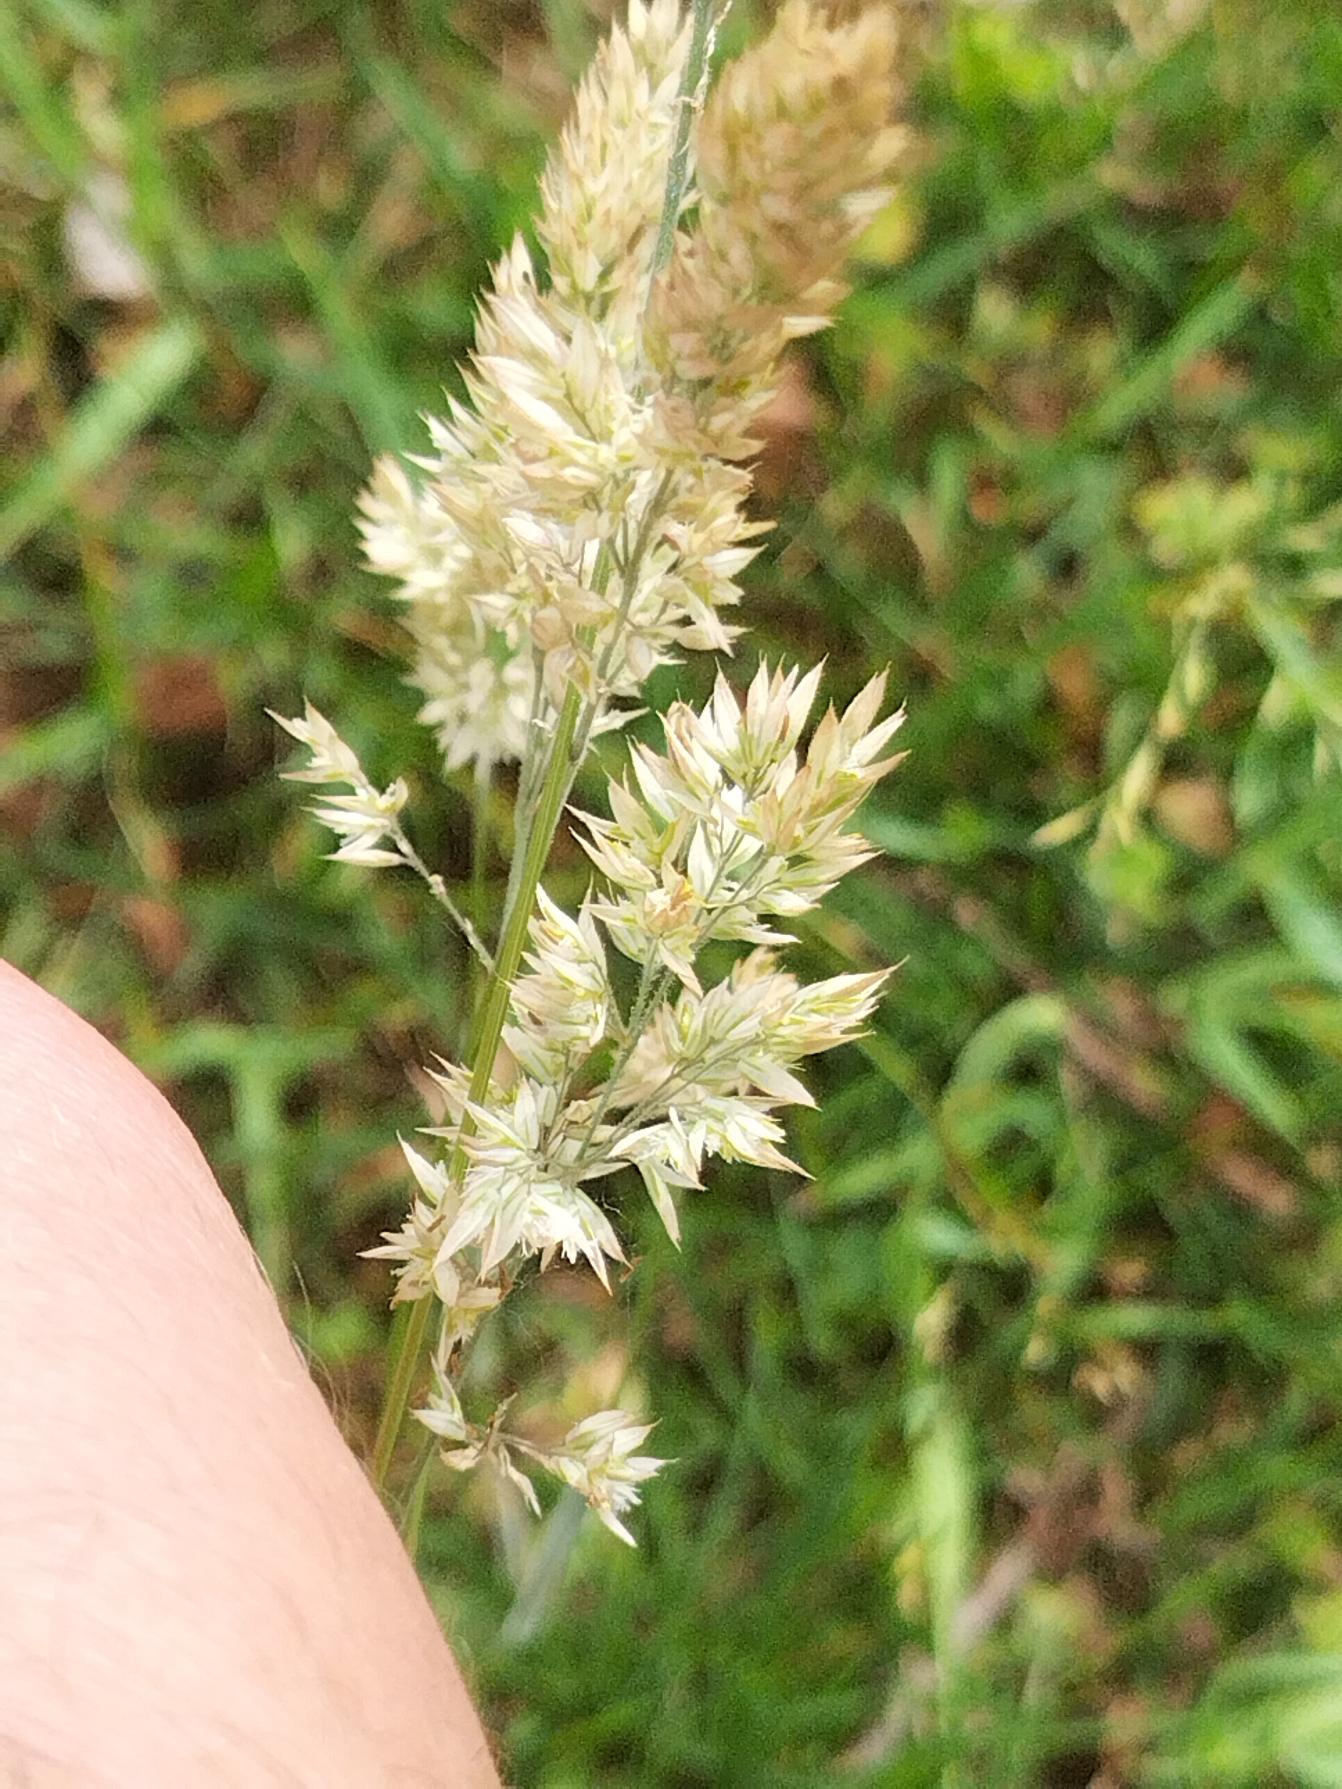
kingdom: Plantae
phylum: Tracheophyta
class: Liliopsida
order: Poales
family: Poaceae
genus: Holcus
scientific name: Holcus lanatus
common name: Fløjlsgræs
